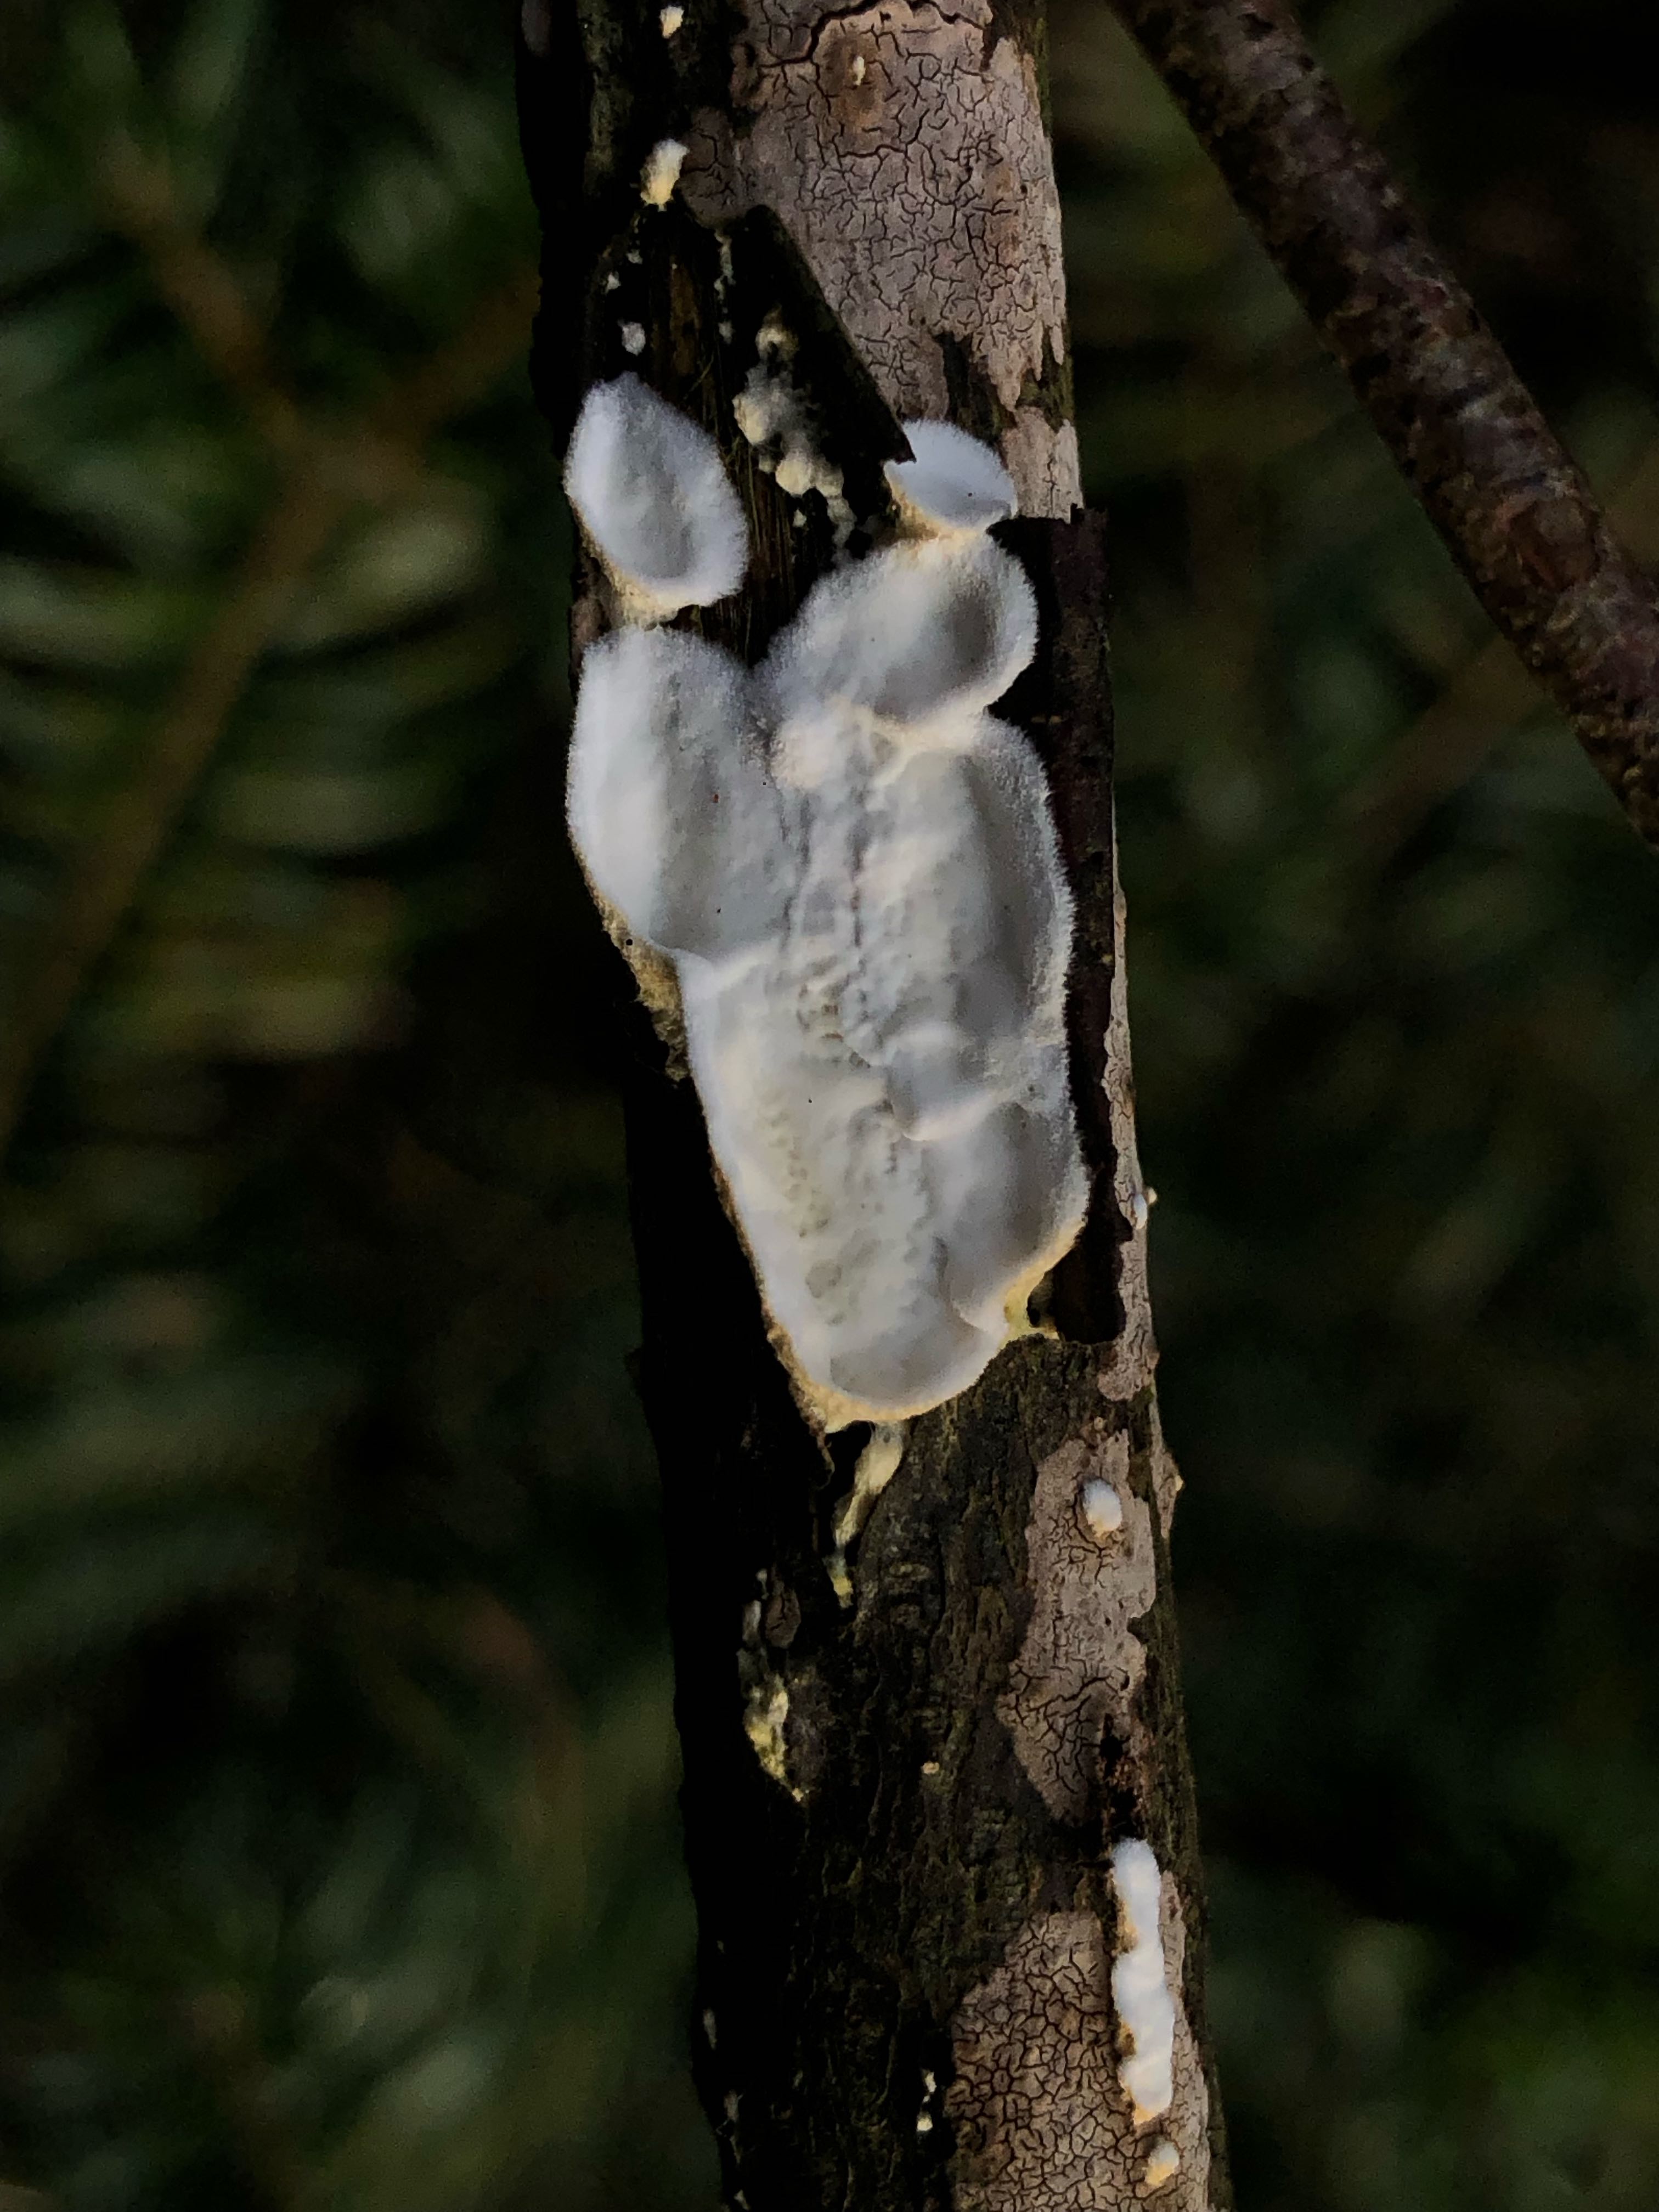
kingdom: Fungi
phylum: Basidiomycota
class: Agaricomycetes
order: Polyporales
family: Irpicaceae
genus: Byssomerulius
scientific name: Byssomerulius corium
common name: læder-åresvamp
